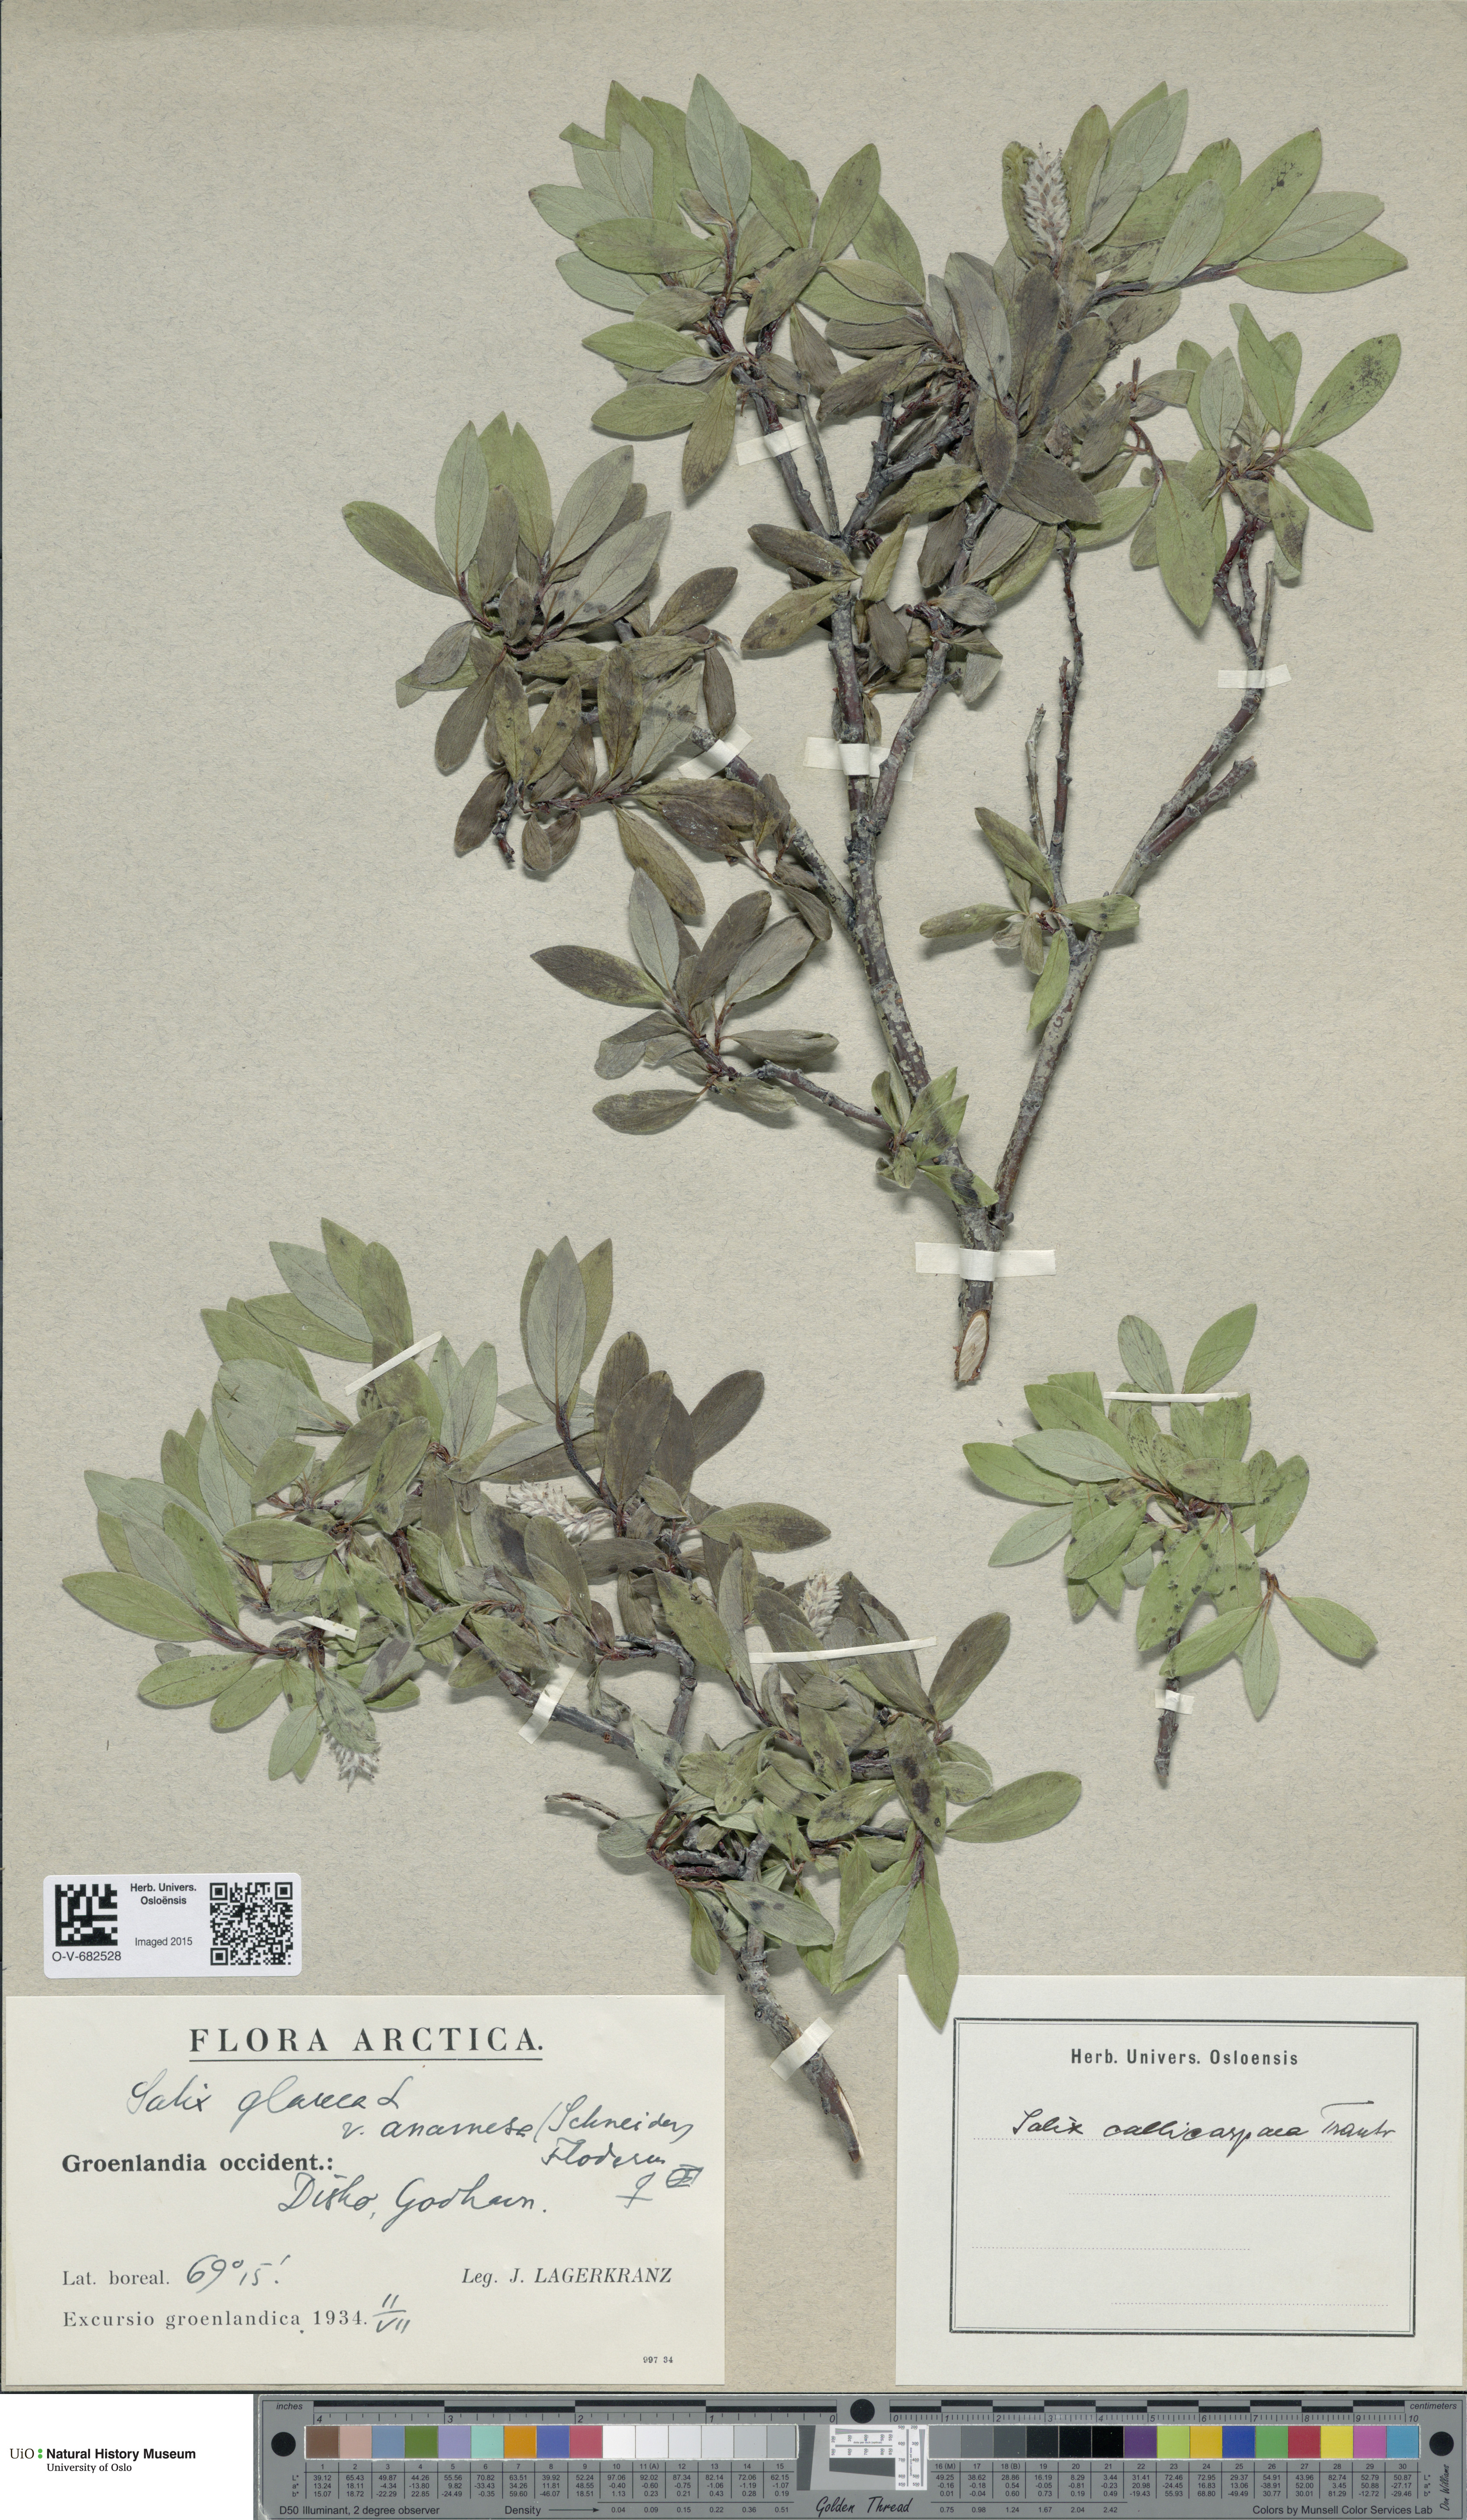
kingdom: Plantae
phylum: Tracheophyta
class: Magnoliopsida
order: Malpighiales
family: Salicaceae
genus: Salix
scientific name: Salix glauca
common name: Glaucous willow
